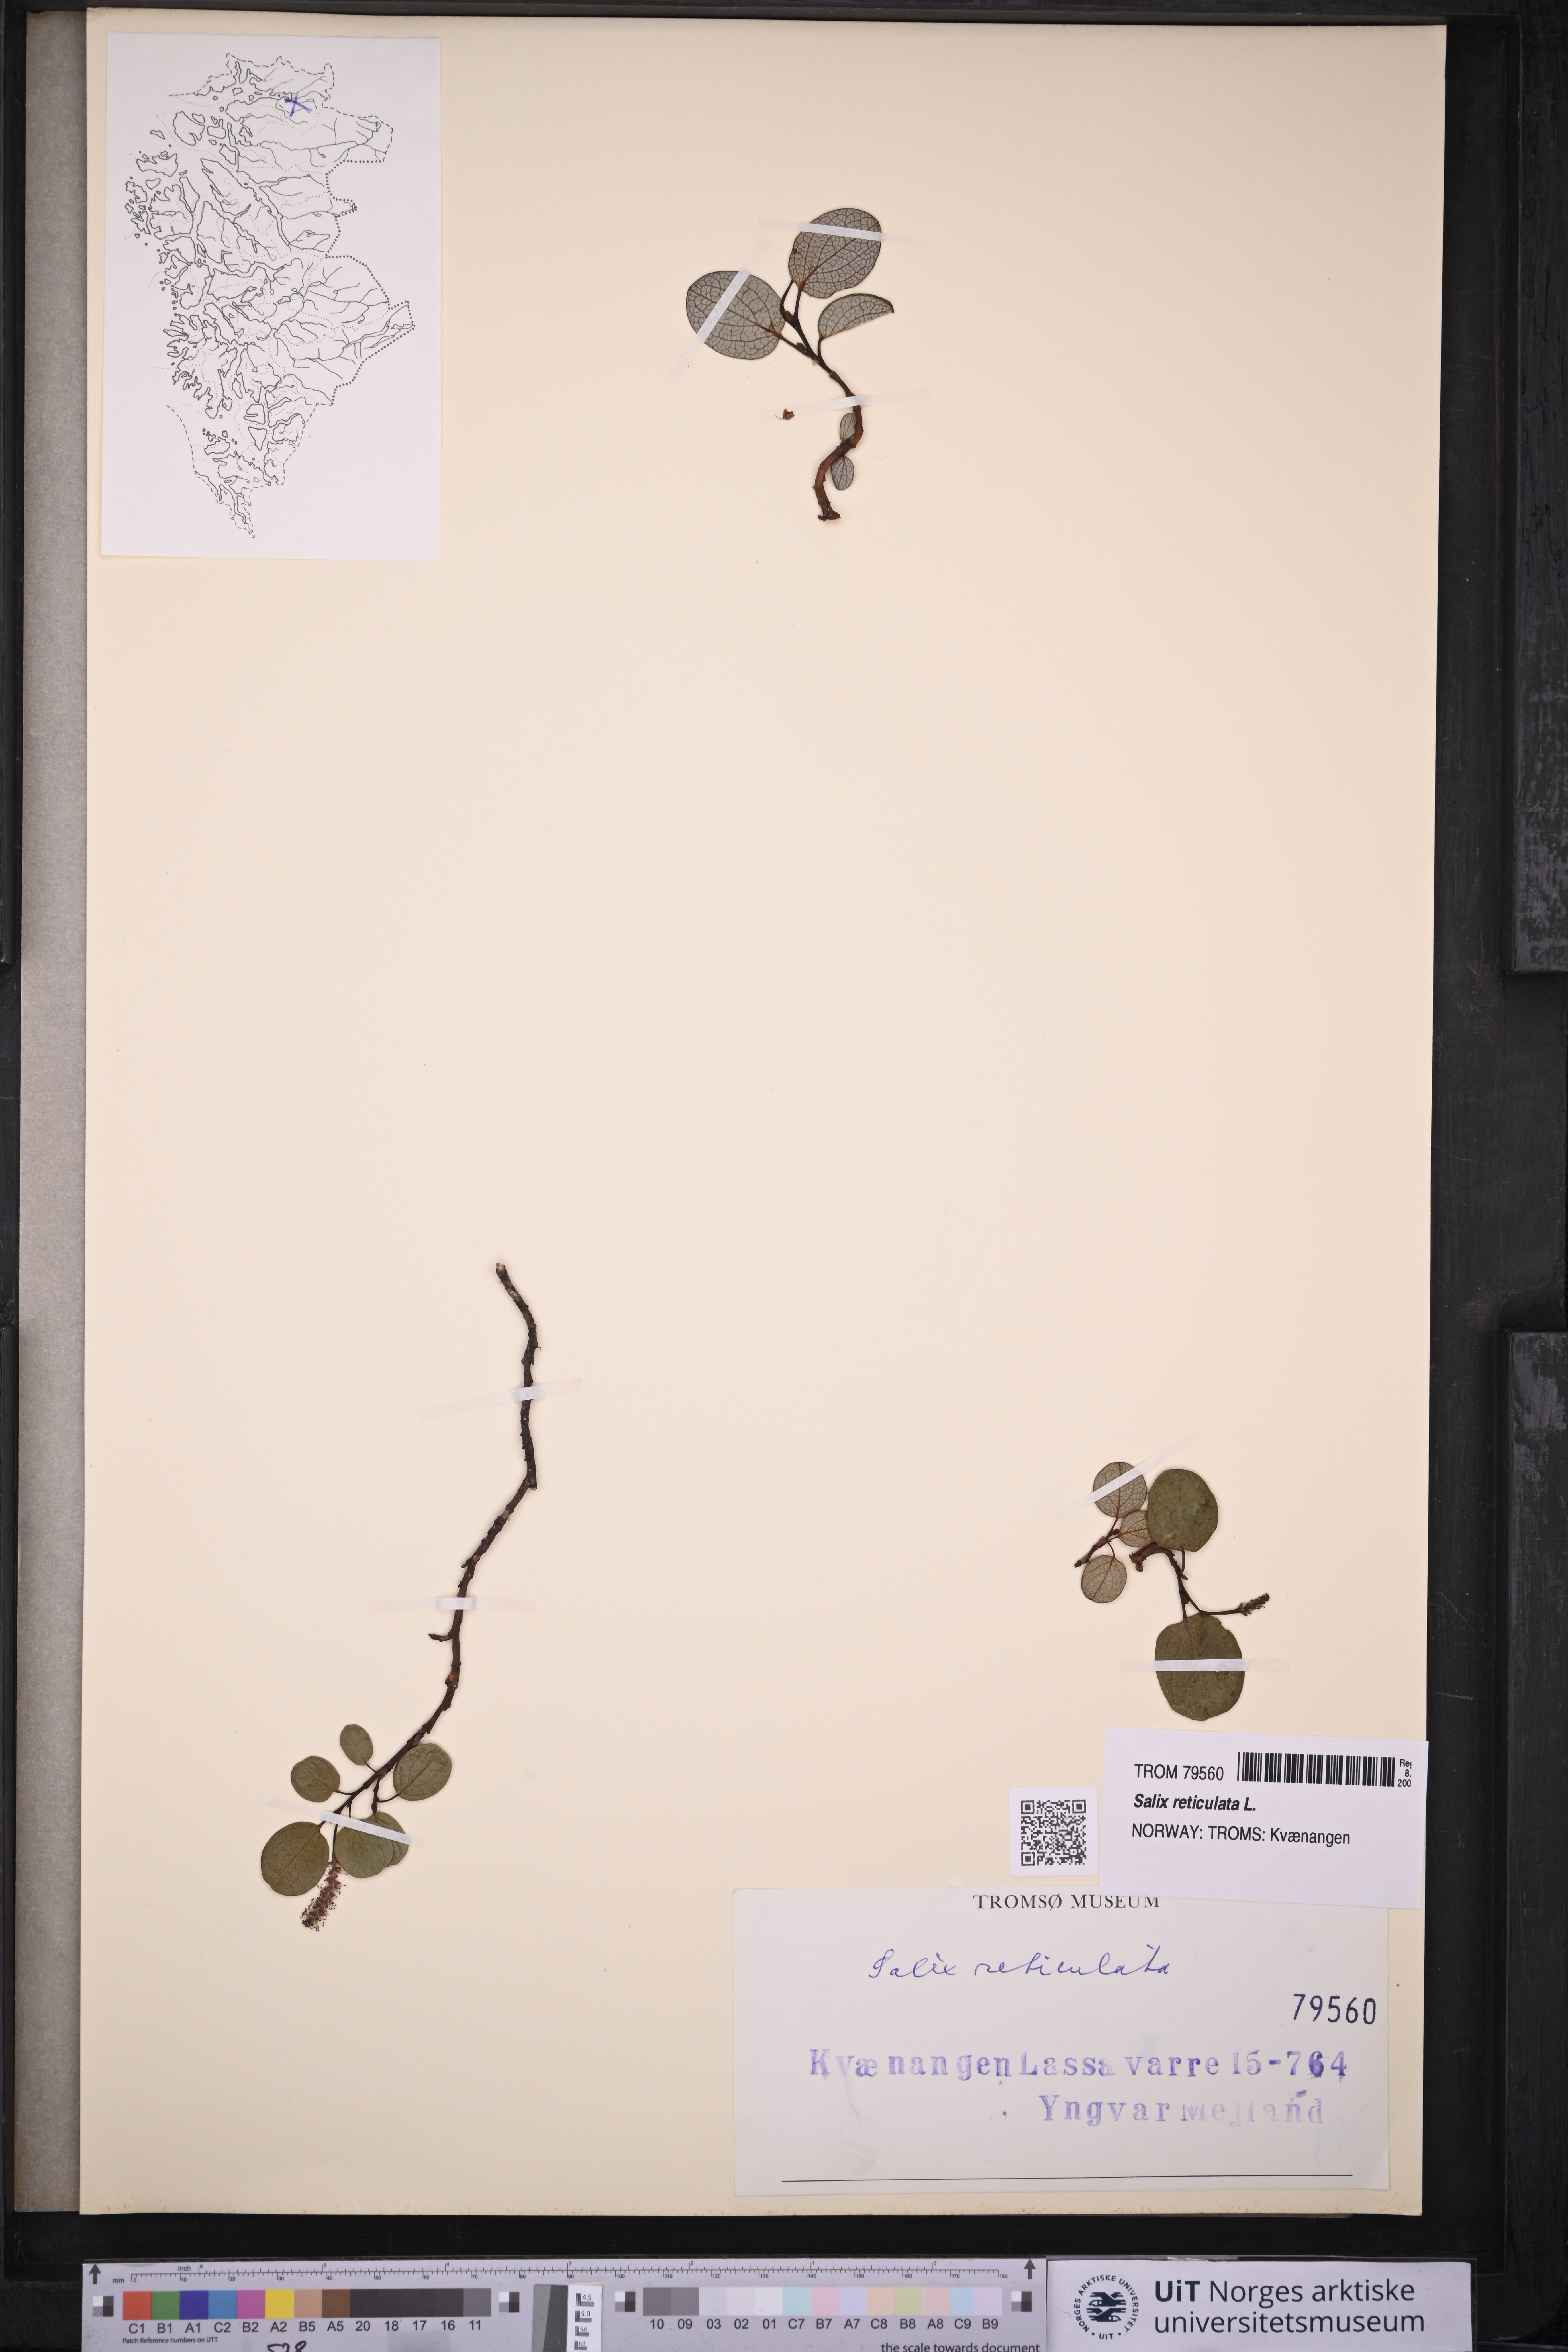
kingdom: Plantae
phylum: Tracheophyta
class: Magnoliopsida
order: Malpighiales
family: Salicaceae
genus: Salix
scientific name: Salix reticulata
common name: Net-leaved willow
